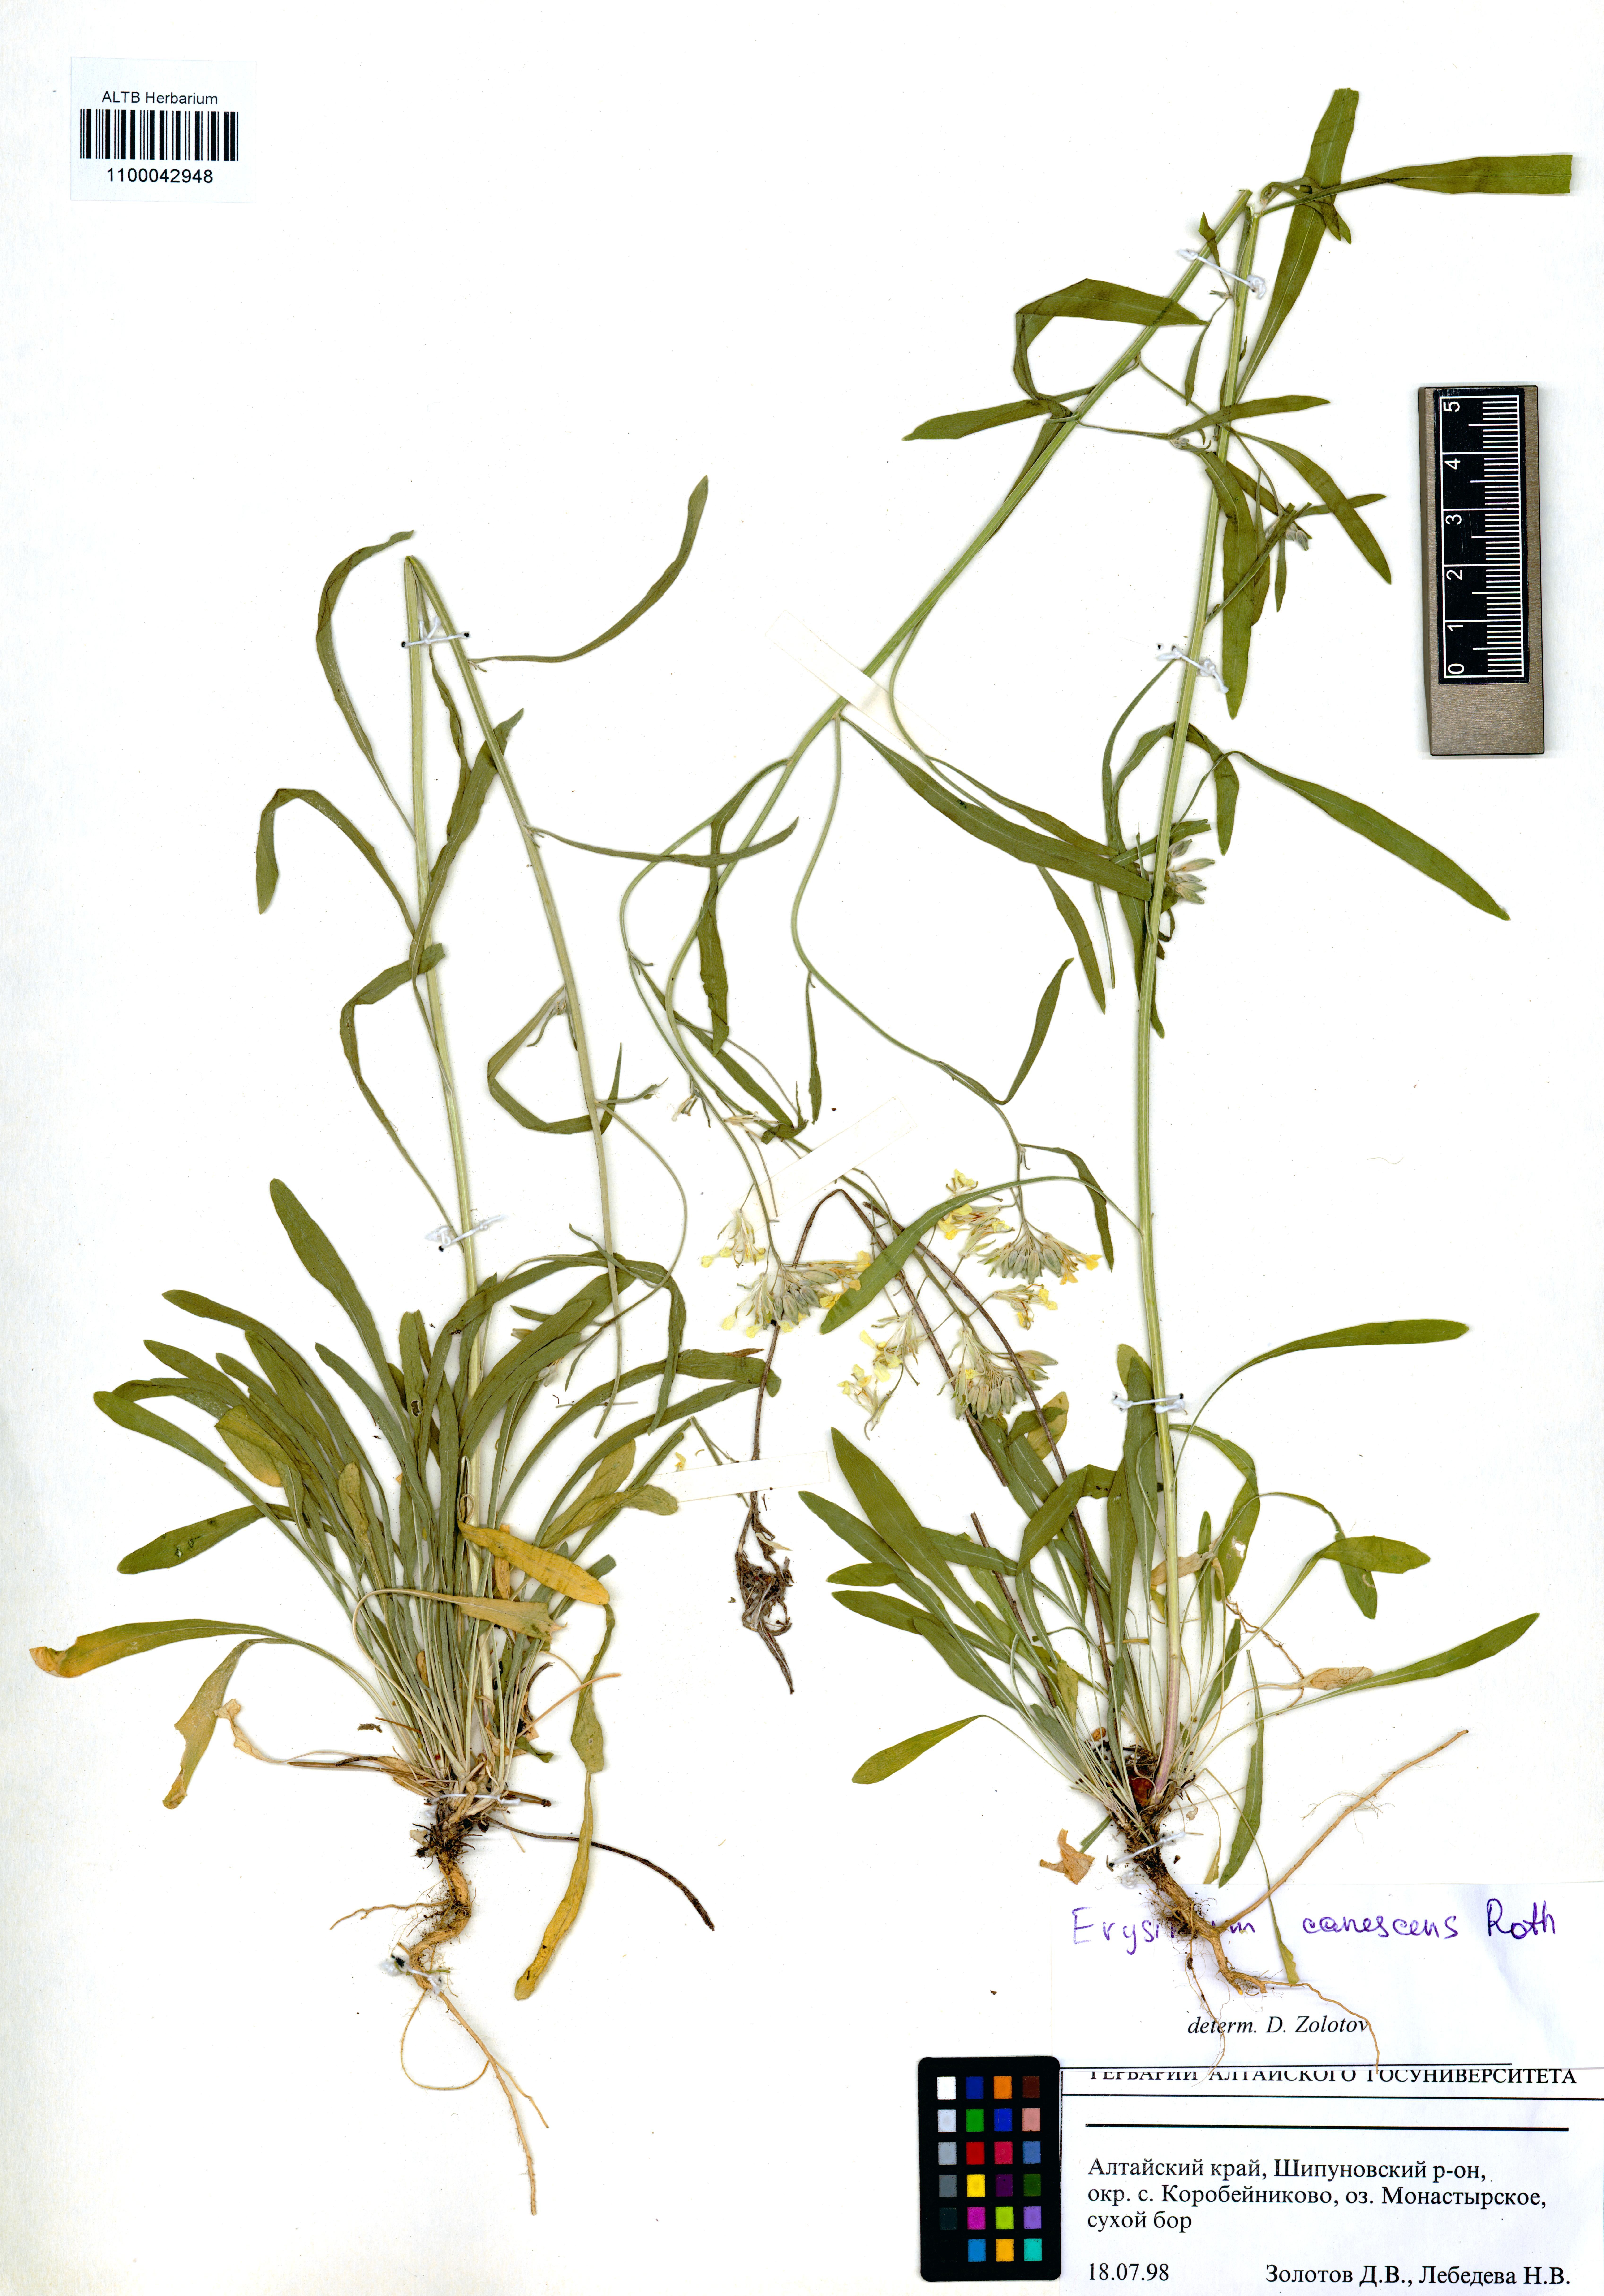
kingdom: Plantae
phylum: Tracheophyta
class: Magnoliopsida
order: Brassicales
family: Brassicaceae
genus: Erysimum
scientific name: Erysimum canescens
